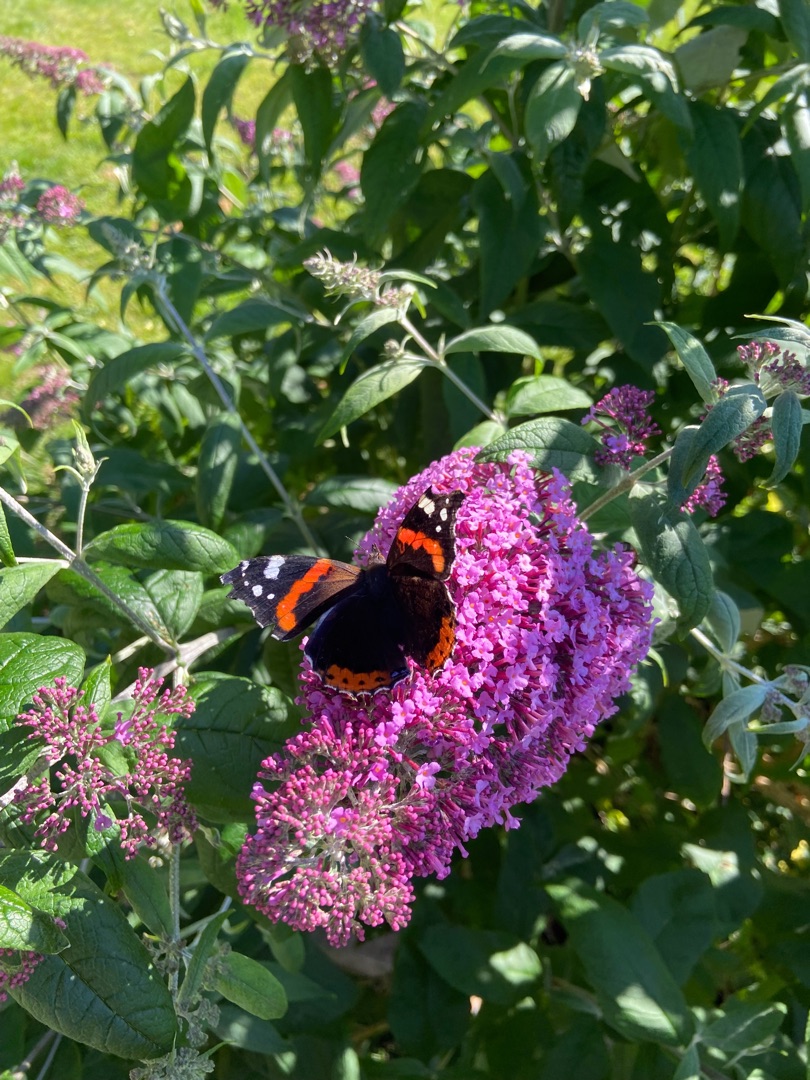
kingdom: Animalia
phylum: Arthropoda
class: Insecta
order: Lepidoptera
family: Nymphalidae
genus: Vanessa
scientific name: Vanessa atalanta
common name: Admiral
